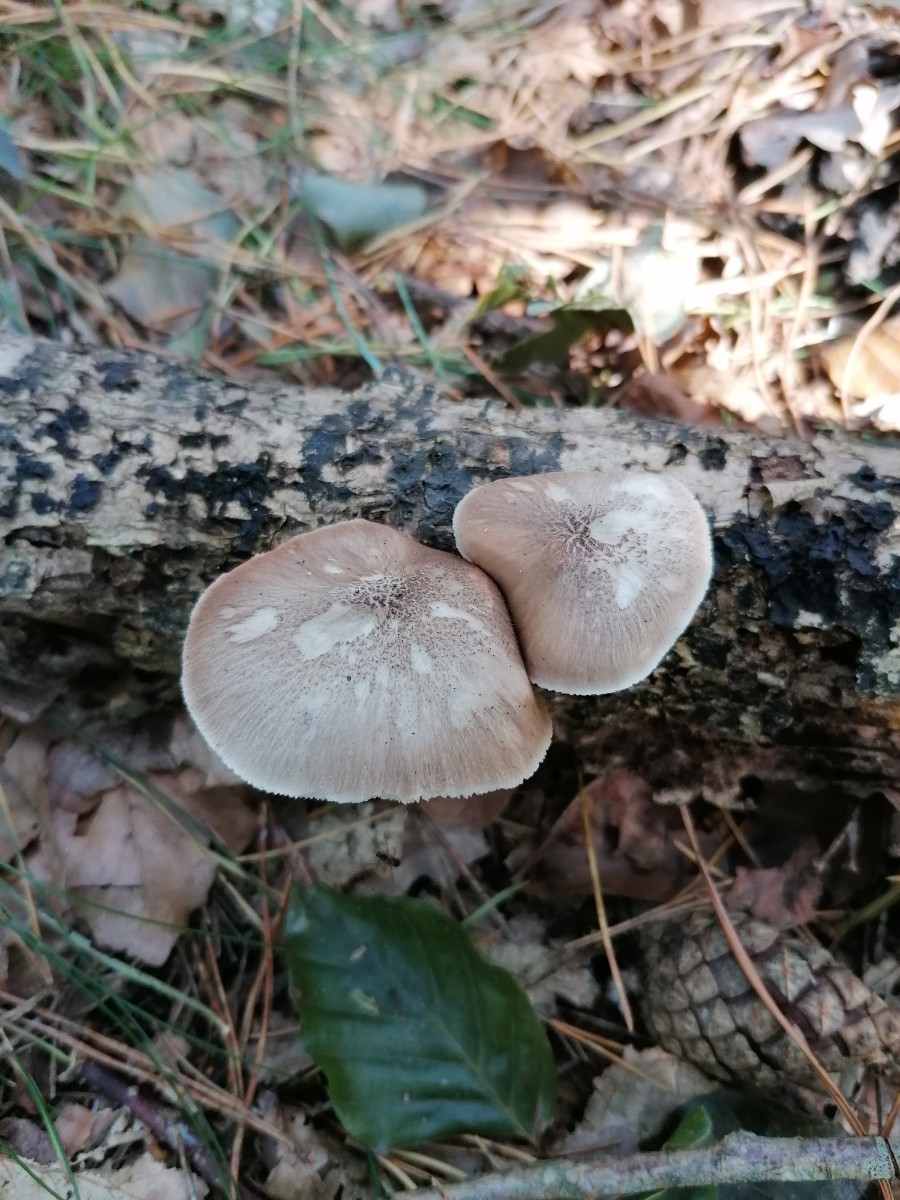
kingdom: Fungi
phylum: Basidiomycota
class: Agaricomycetes
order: Agaricales
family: Pluteaceae
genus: Pluteus
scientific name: Pluteus cervinus
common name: sodfarvet skærmhat
